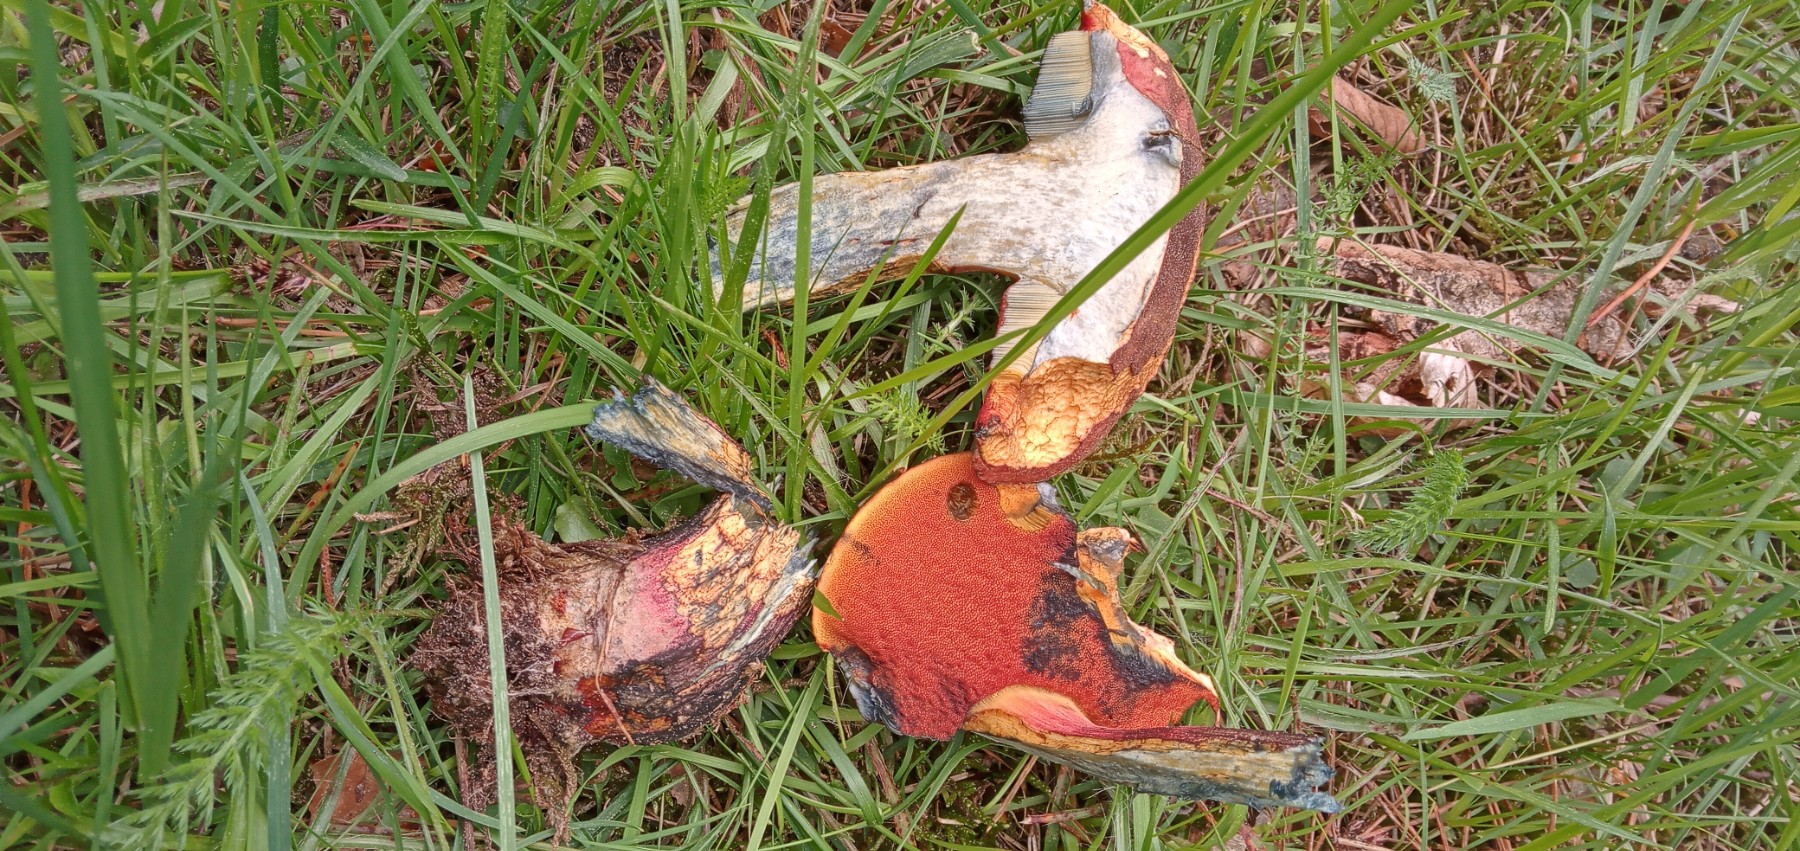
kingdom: Fungi
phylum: Basidiomycota
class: Agaricomycetes
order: Boletales
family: Boletaceae
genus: Neoboletus
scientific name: Neoboletus erythropus
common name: punktstokket indigorørhat
